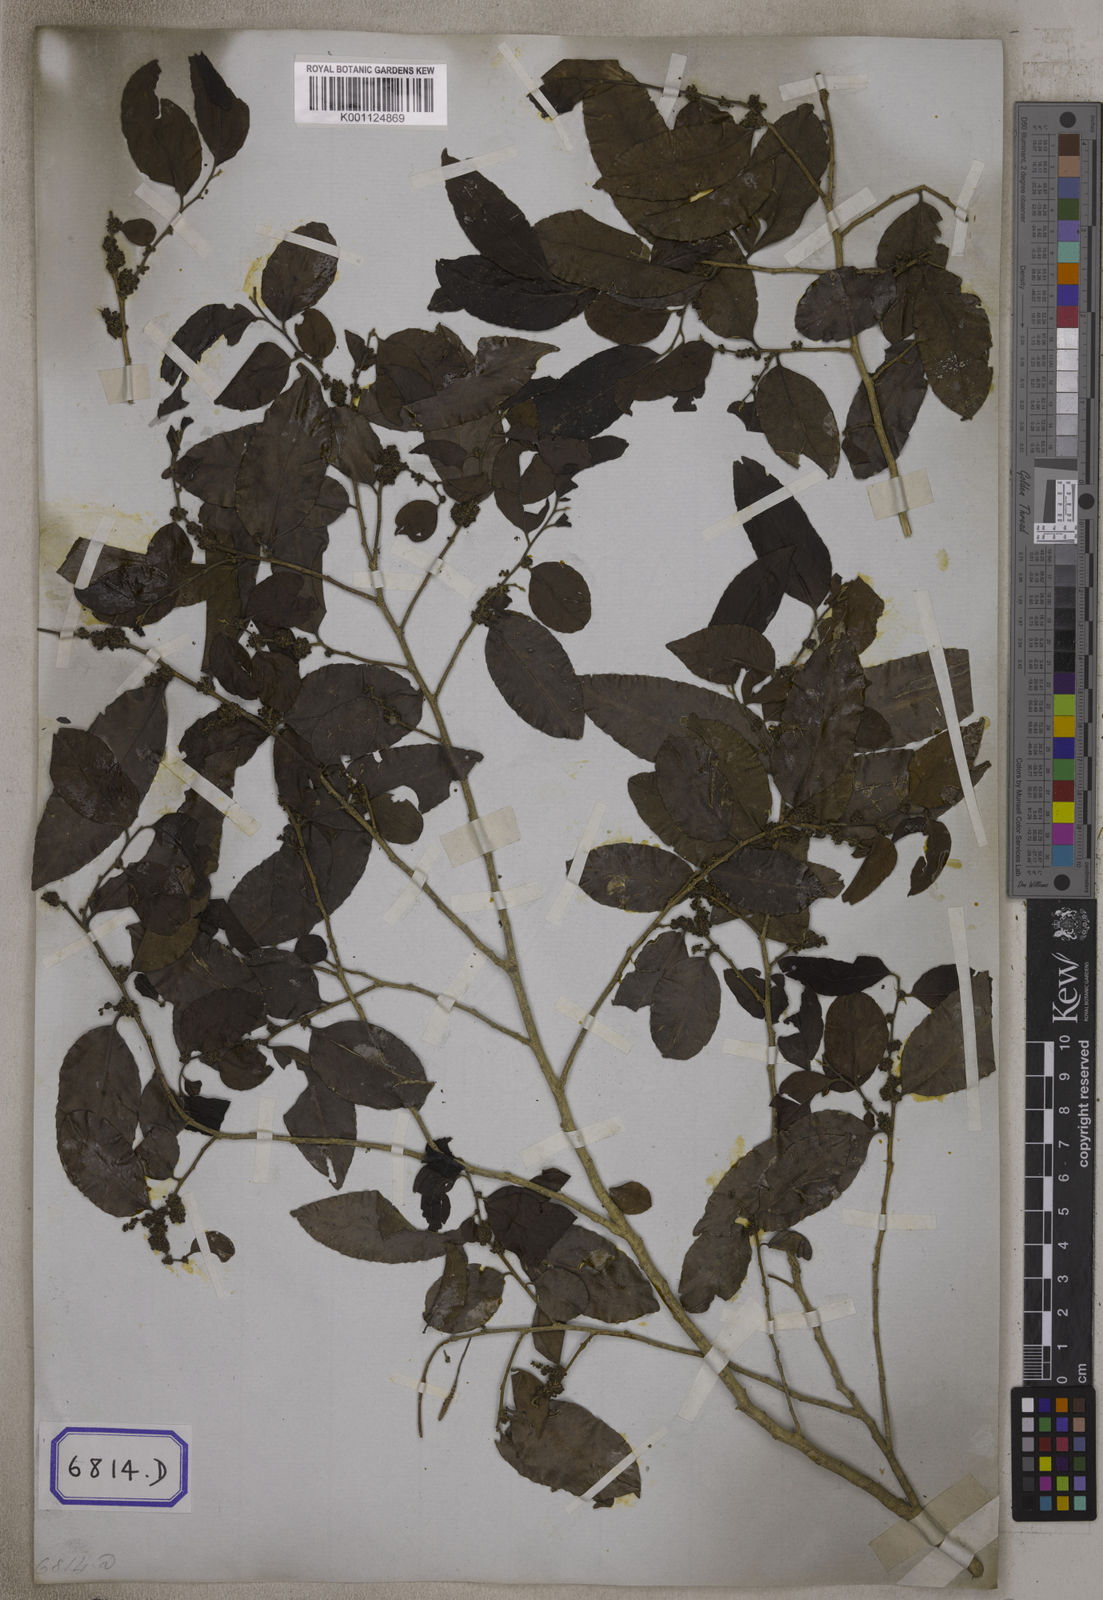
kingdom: Plantae
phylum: Tracheophyta
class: Magnoliopsida
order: Malpighiales
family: Putranjivaceae
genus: Putranjiva
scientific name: Putranjiva roxburghii
